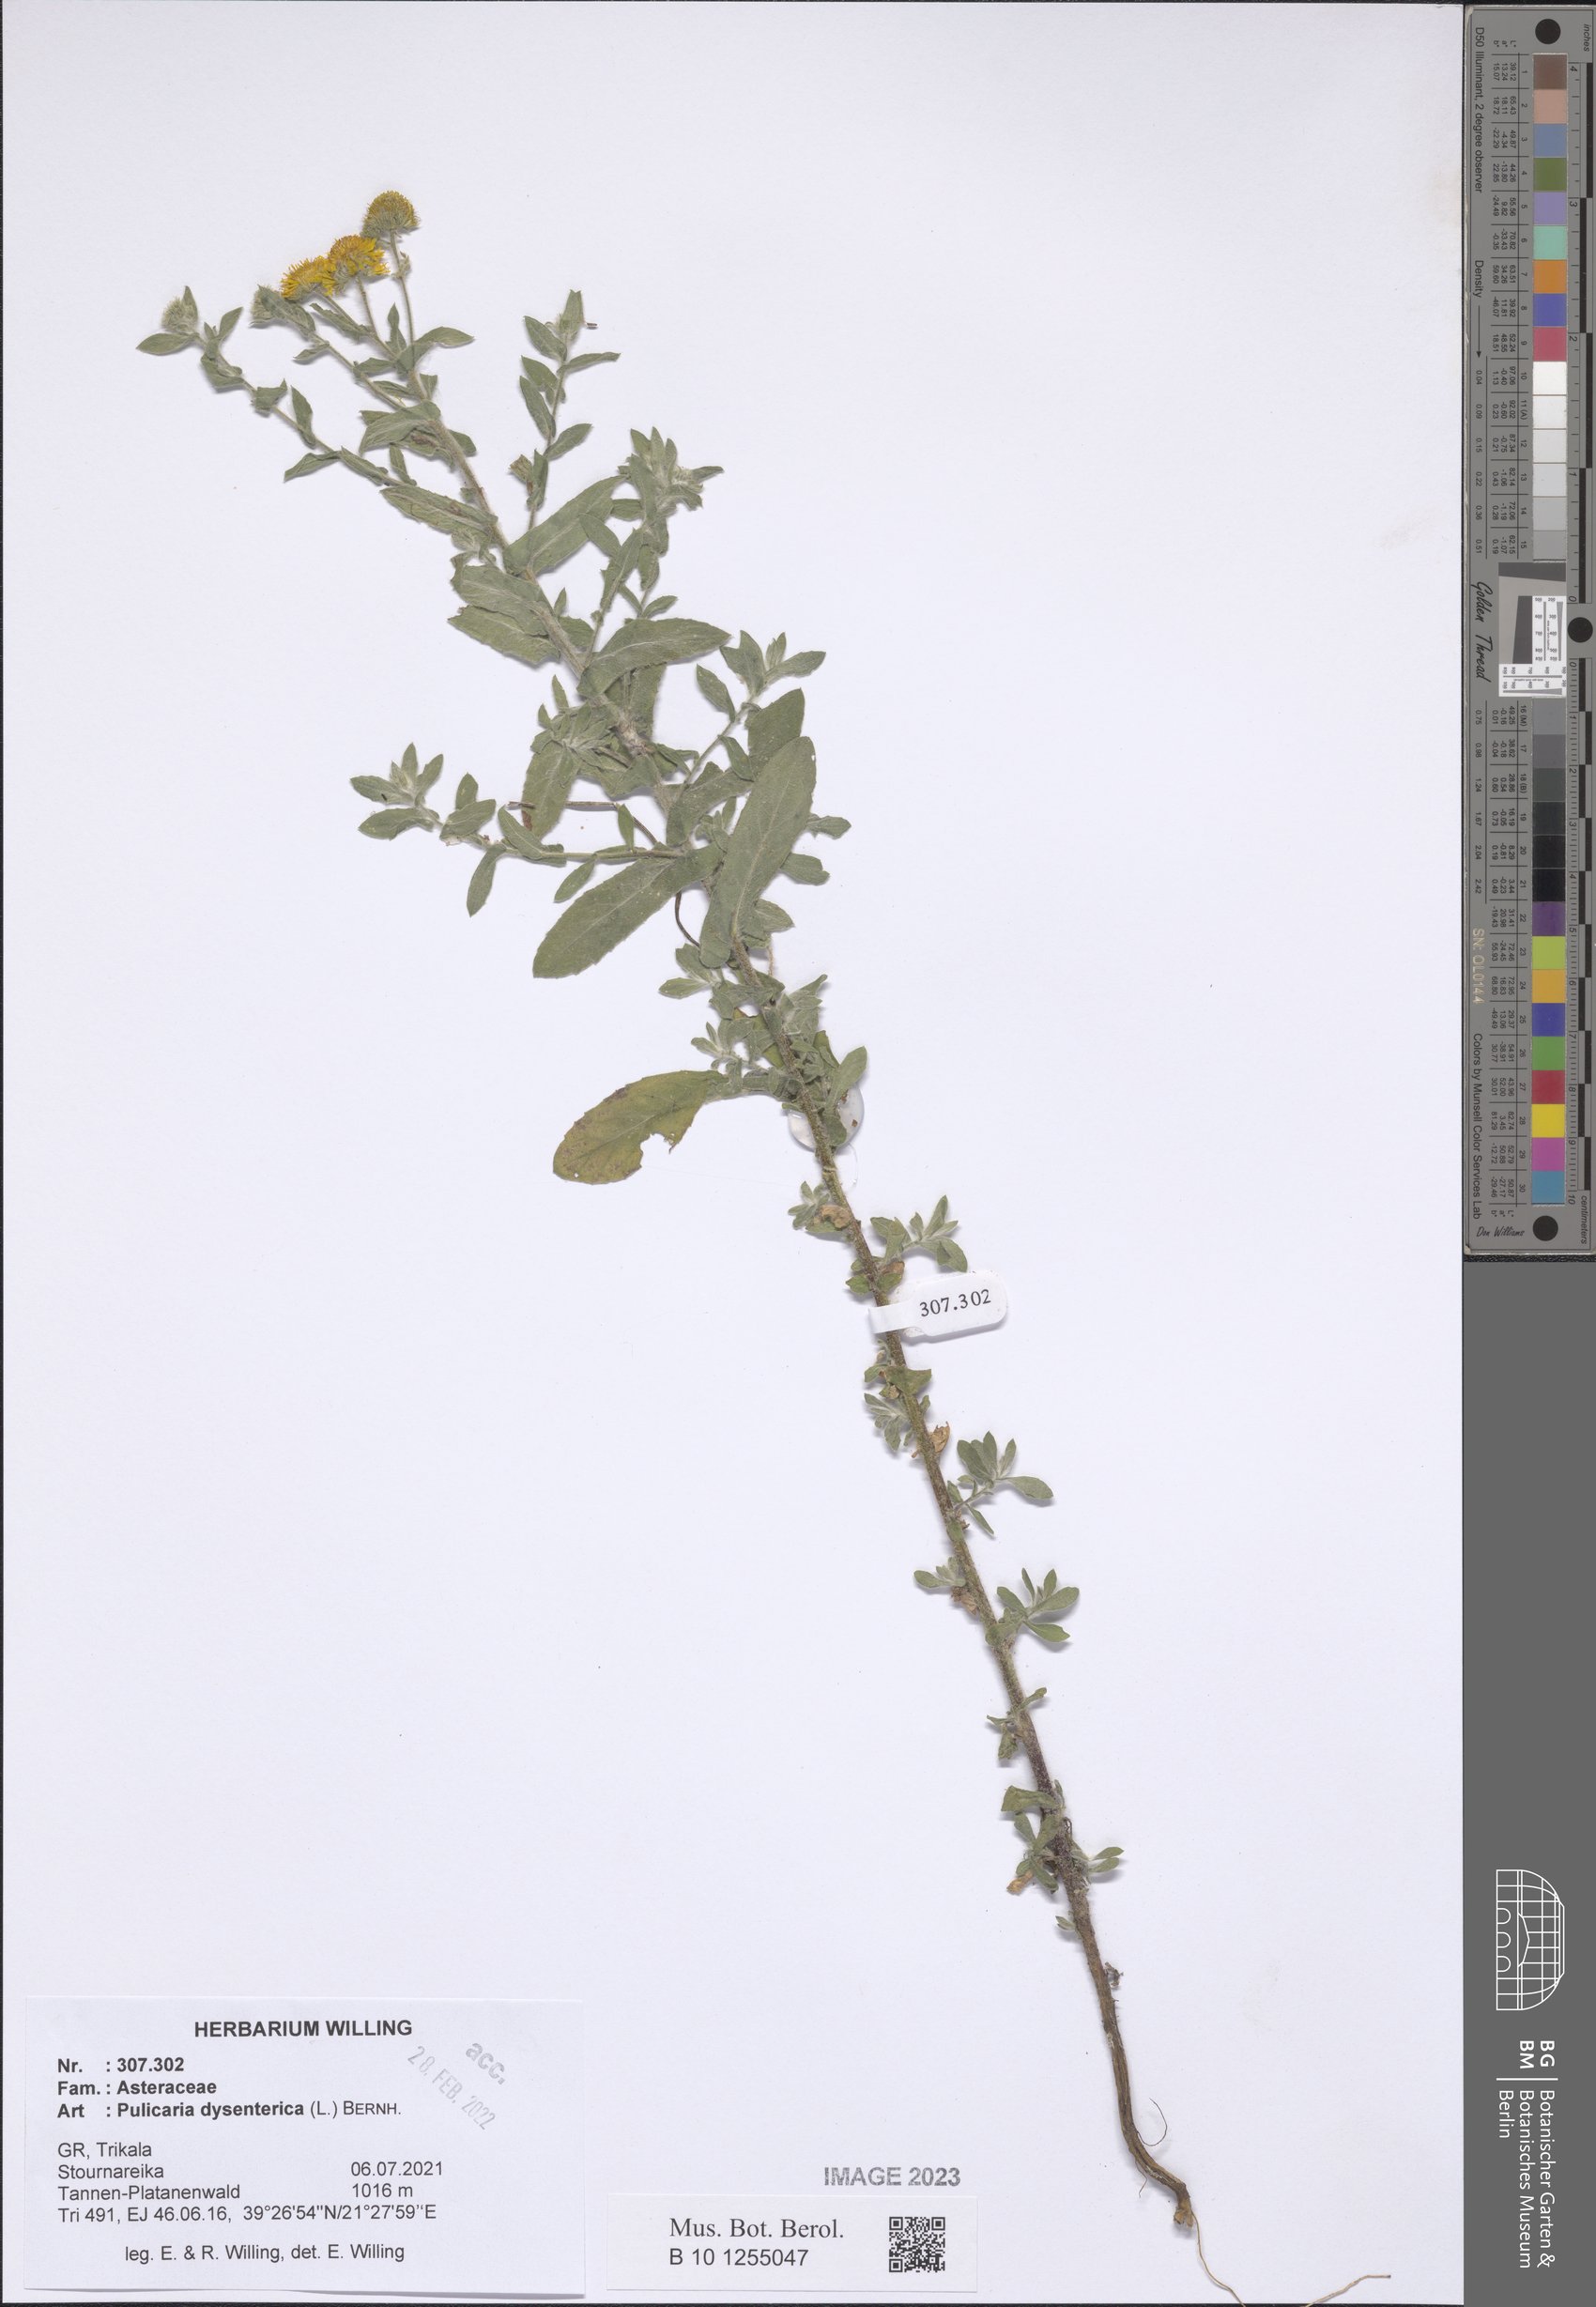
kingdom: Plantae
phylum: Tracheophyta
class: Magnoliopsida
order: Asterales
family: Asteraceae
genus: Pulicaria
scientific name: Pulicaria dysenterica
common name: Common fleabane
